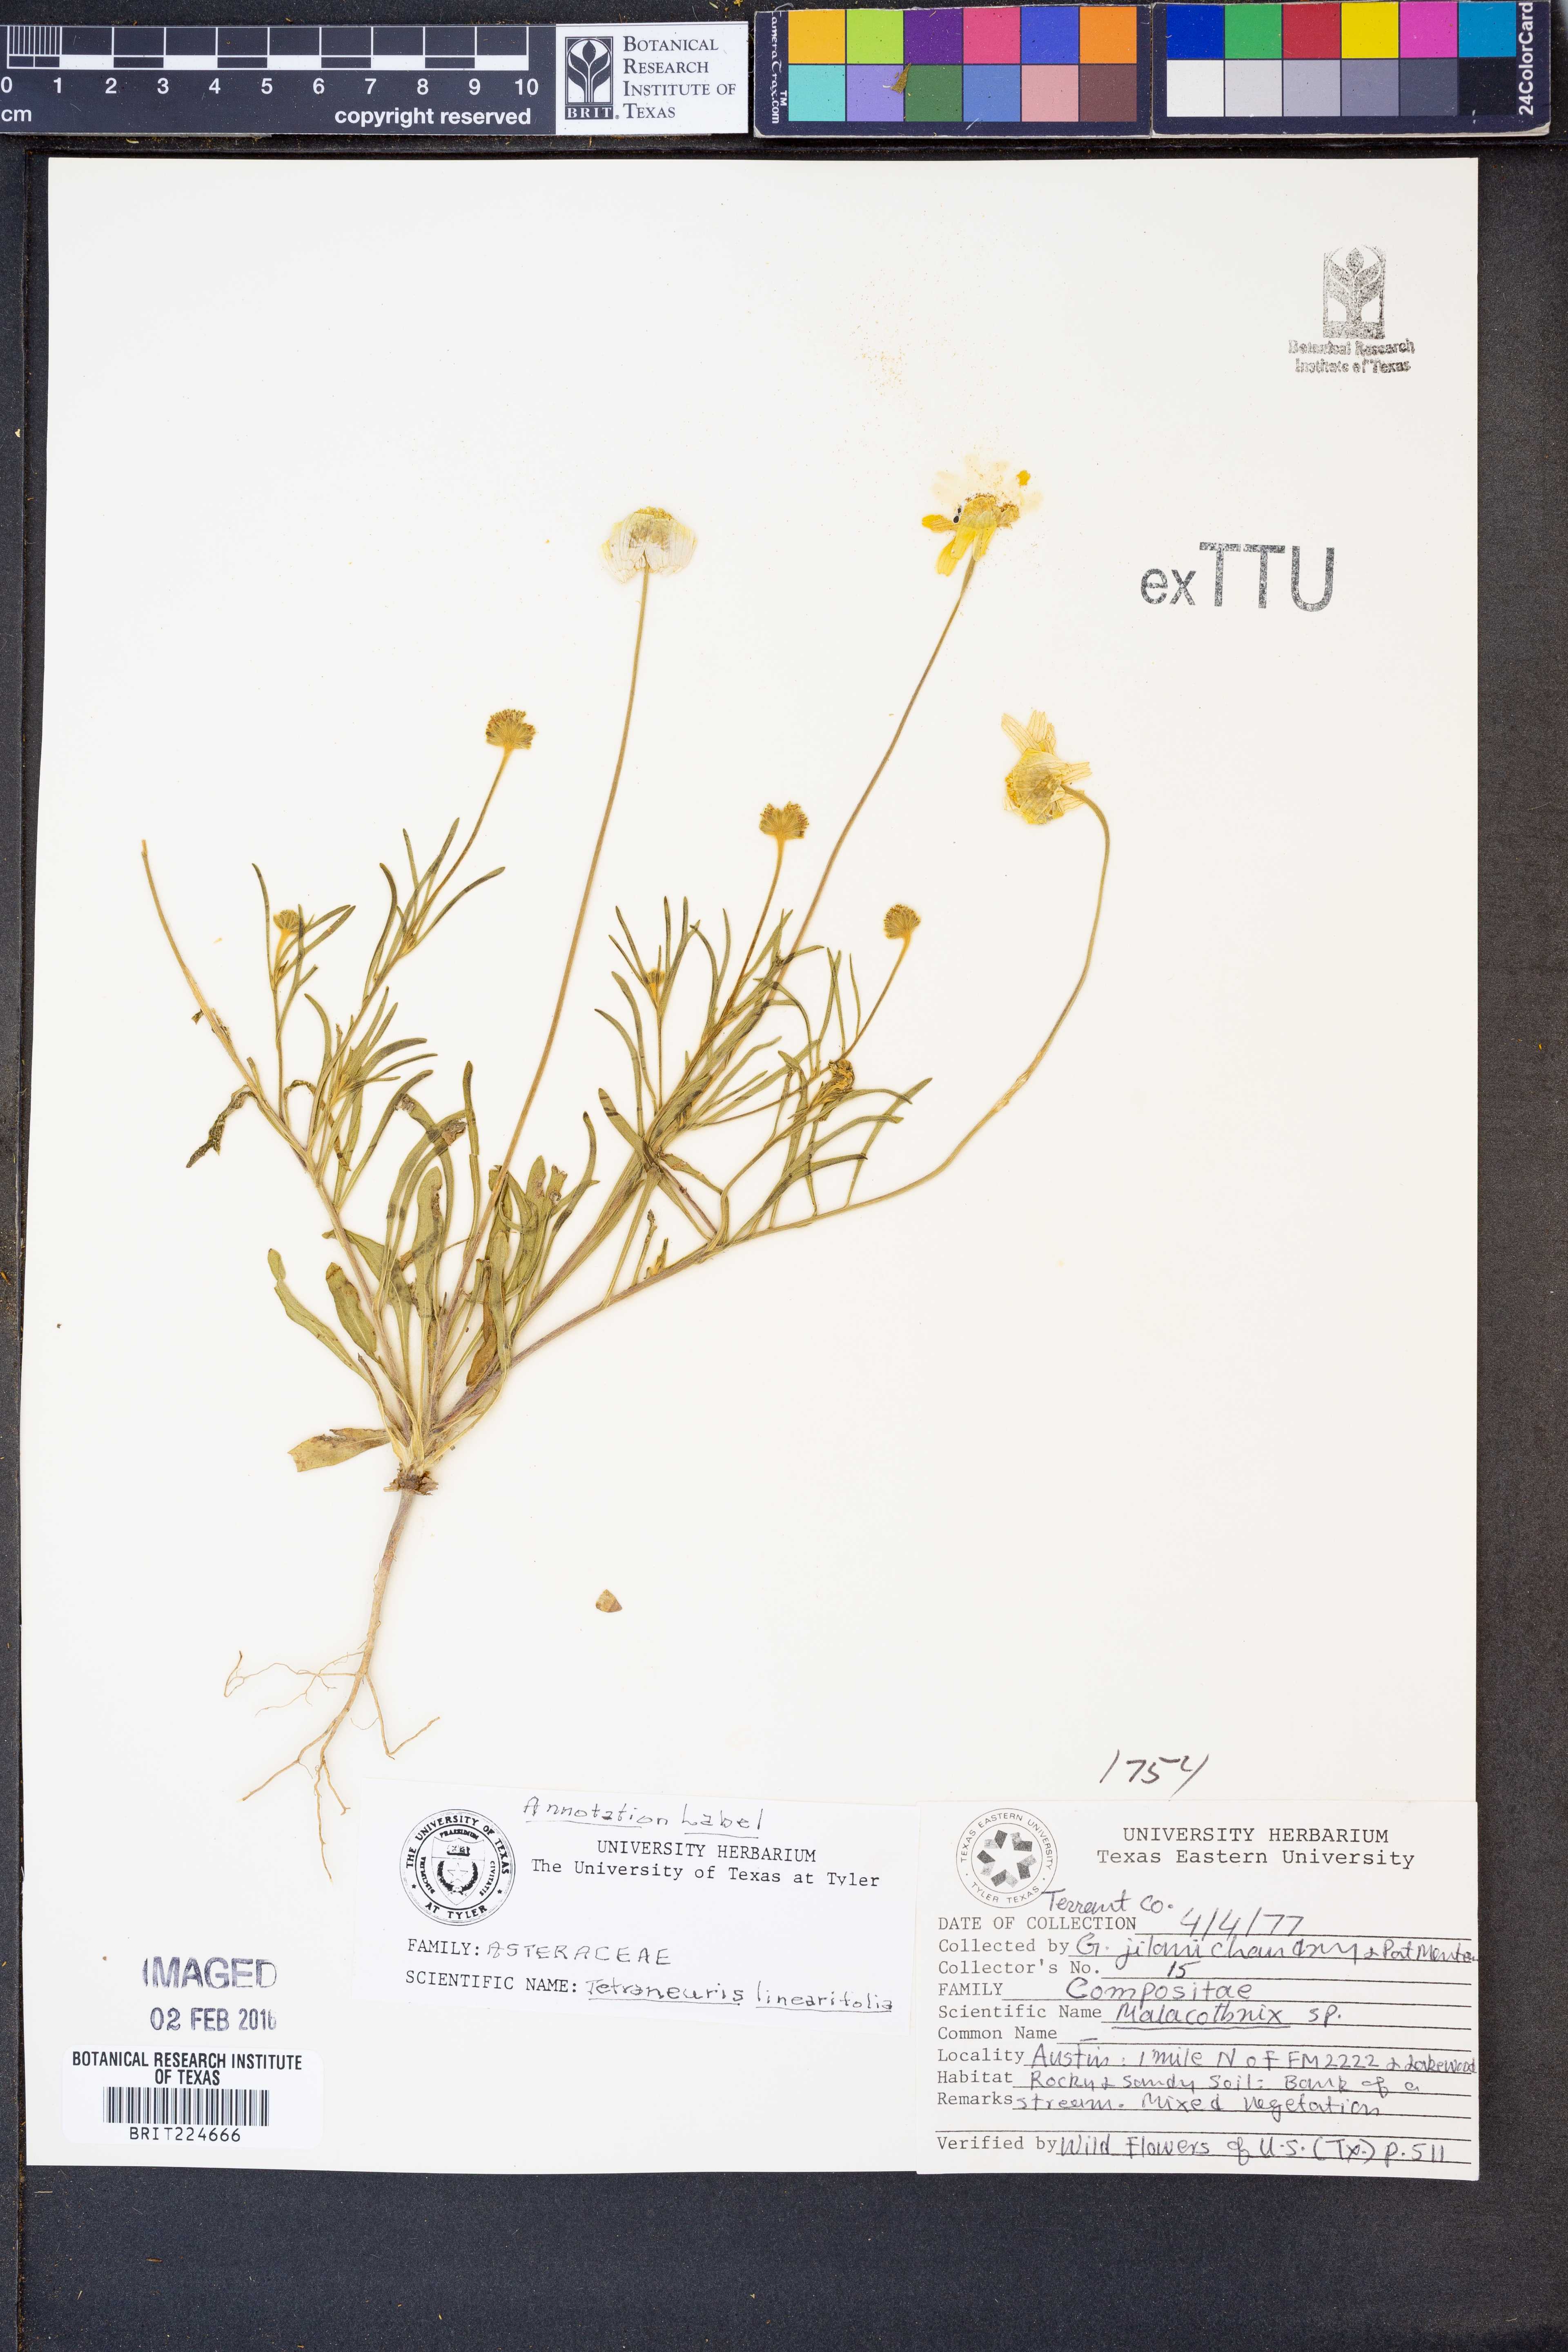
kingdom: Plantae
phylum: Tracheophyta
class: Magnoliopsida
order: Asterales
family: Asteraceae
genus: Tetraneuris
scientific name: Tetraneuris linearifolia
